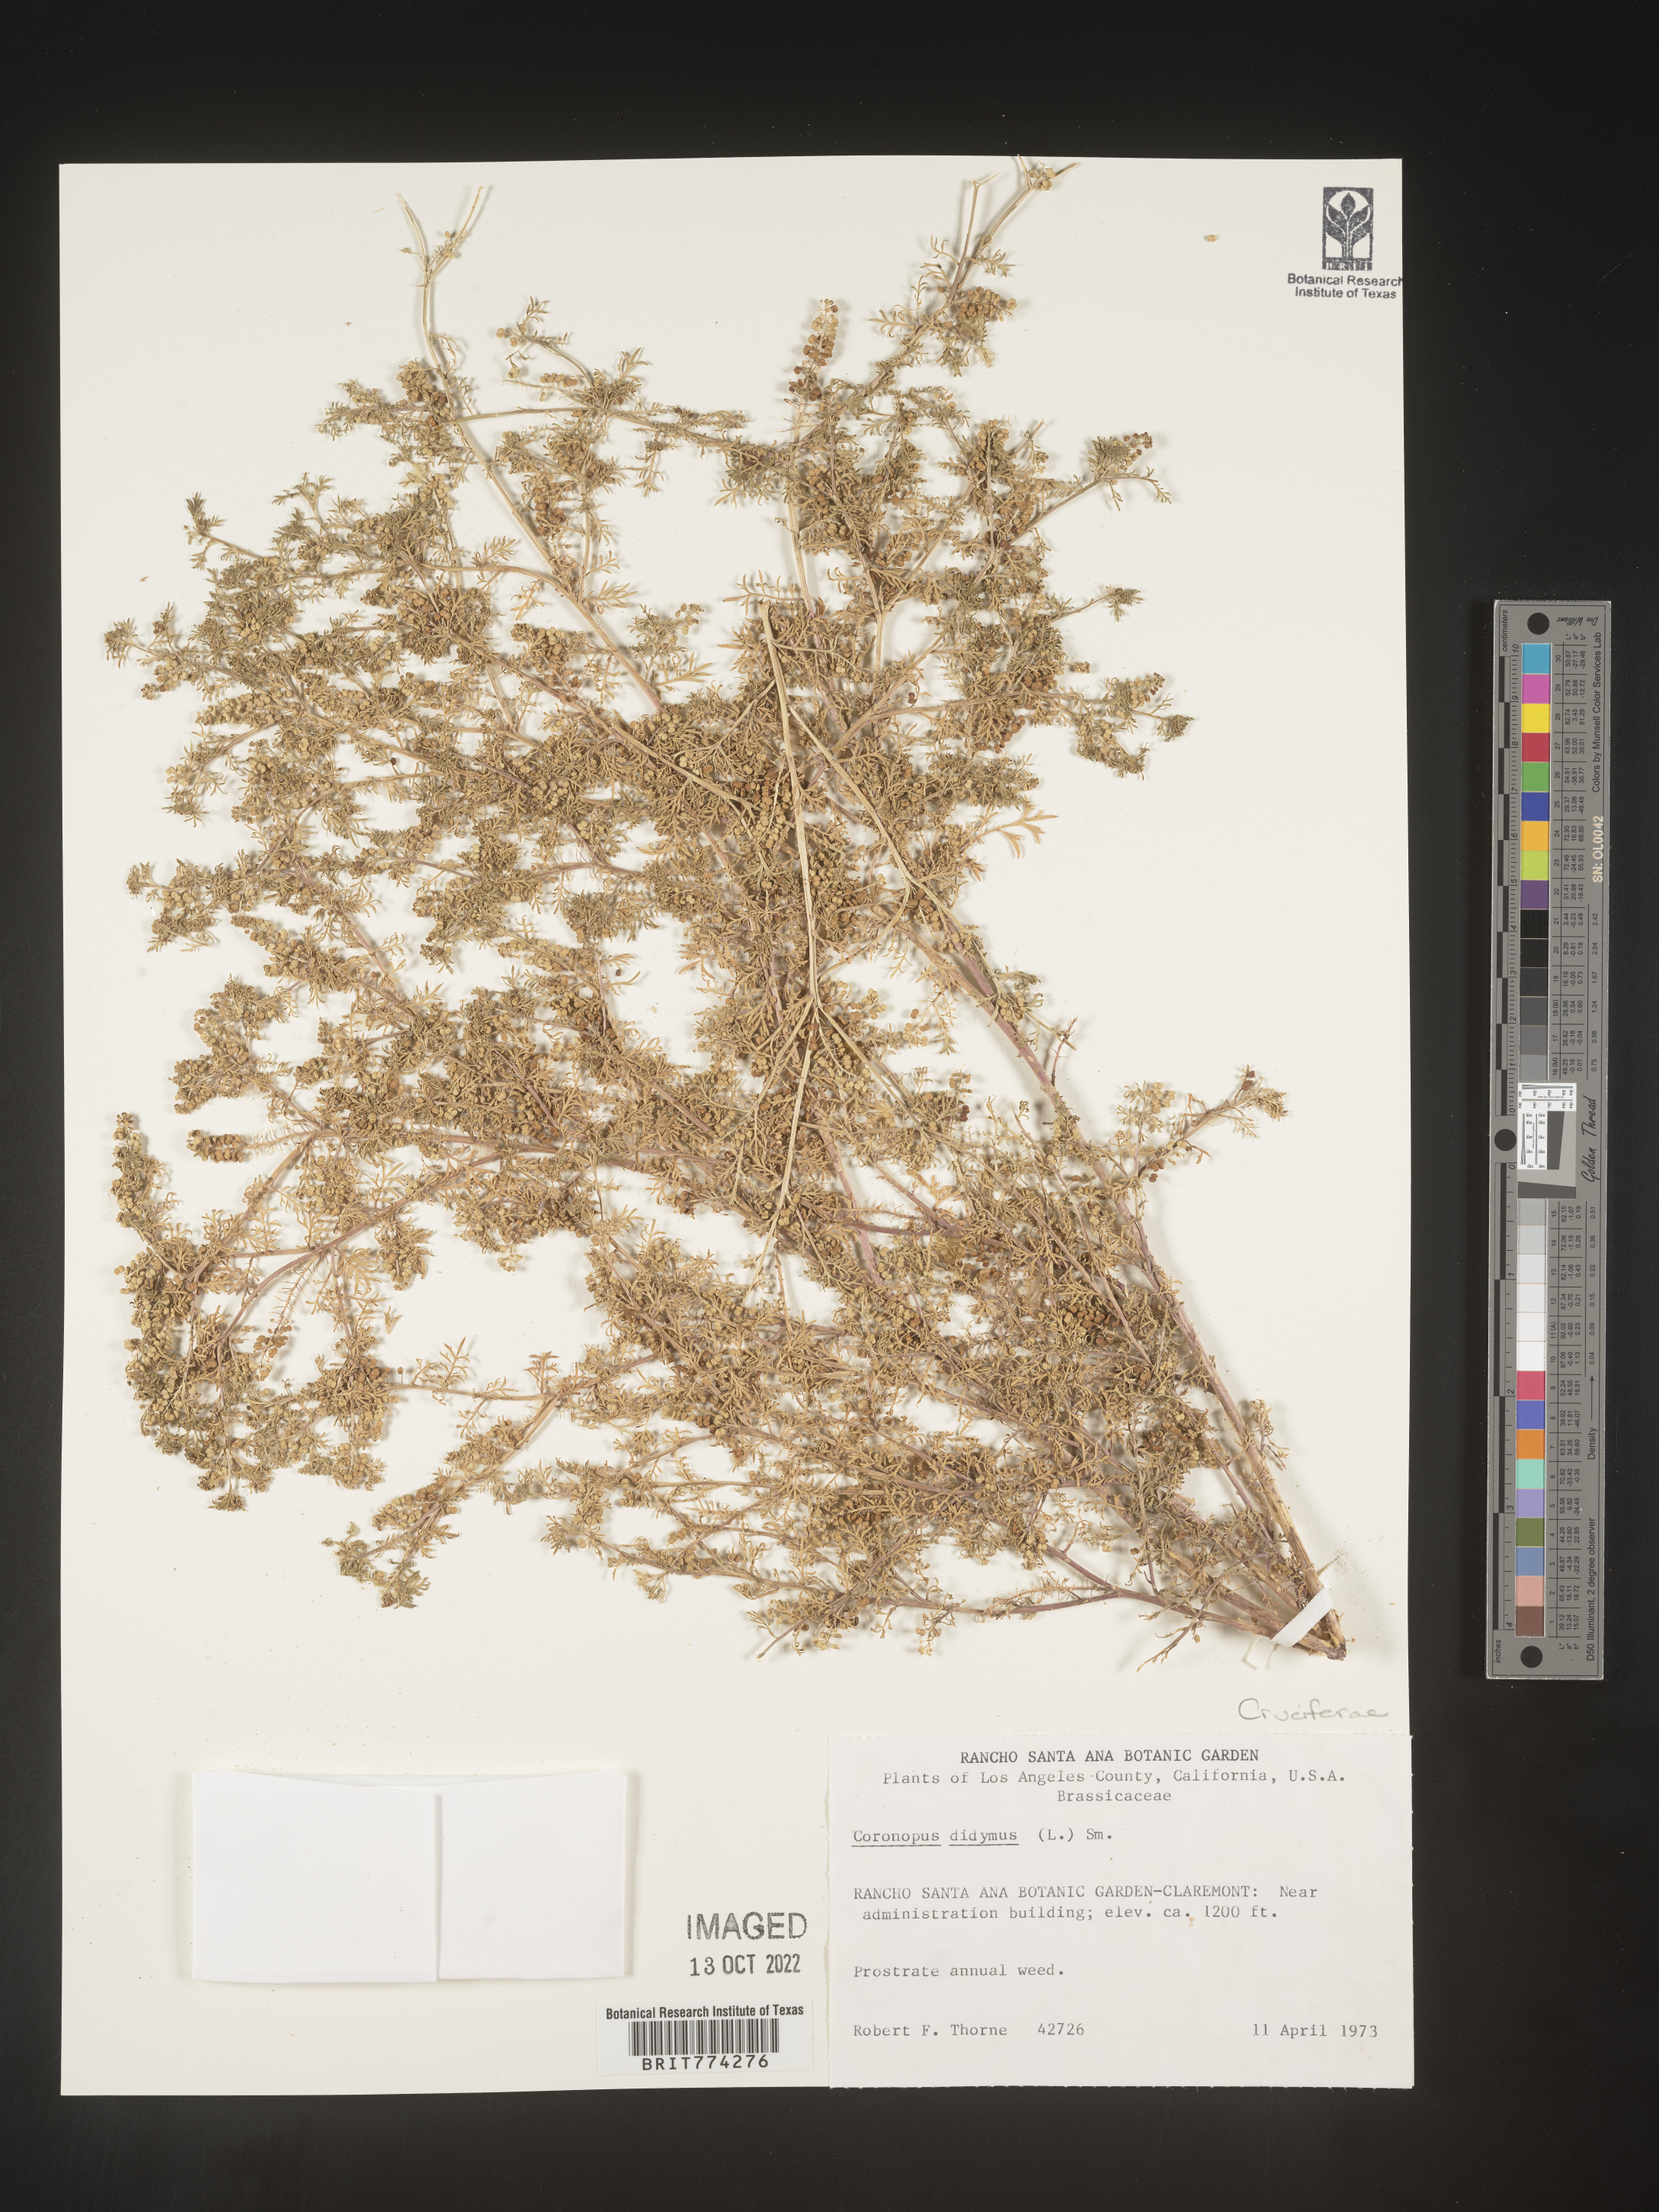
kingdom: Plantae
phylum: Tracheophyta
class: Magnoliopsida
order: Brassicales
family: Brassicaceae
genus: Coronopus
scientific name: Coronopus
